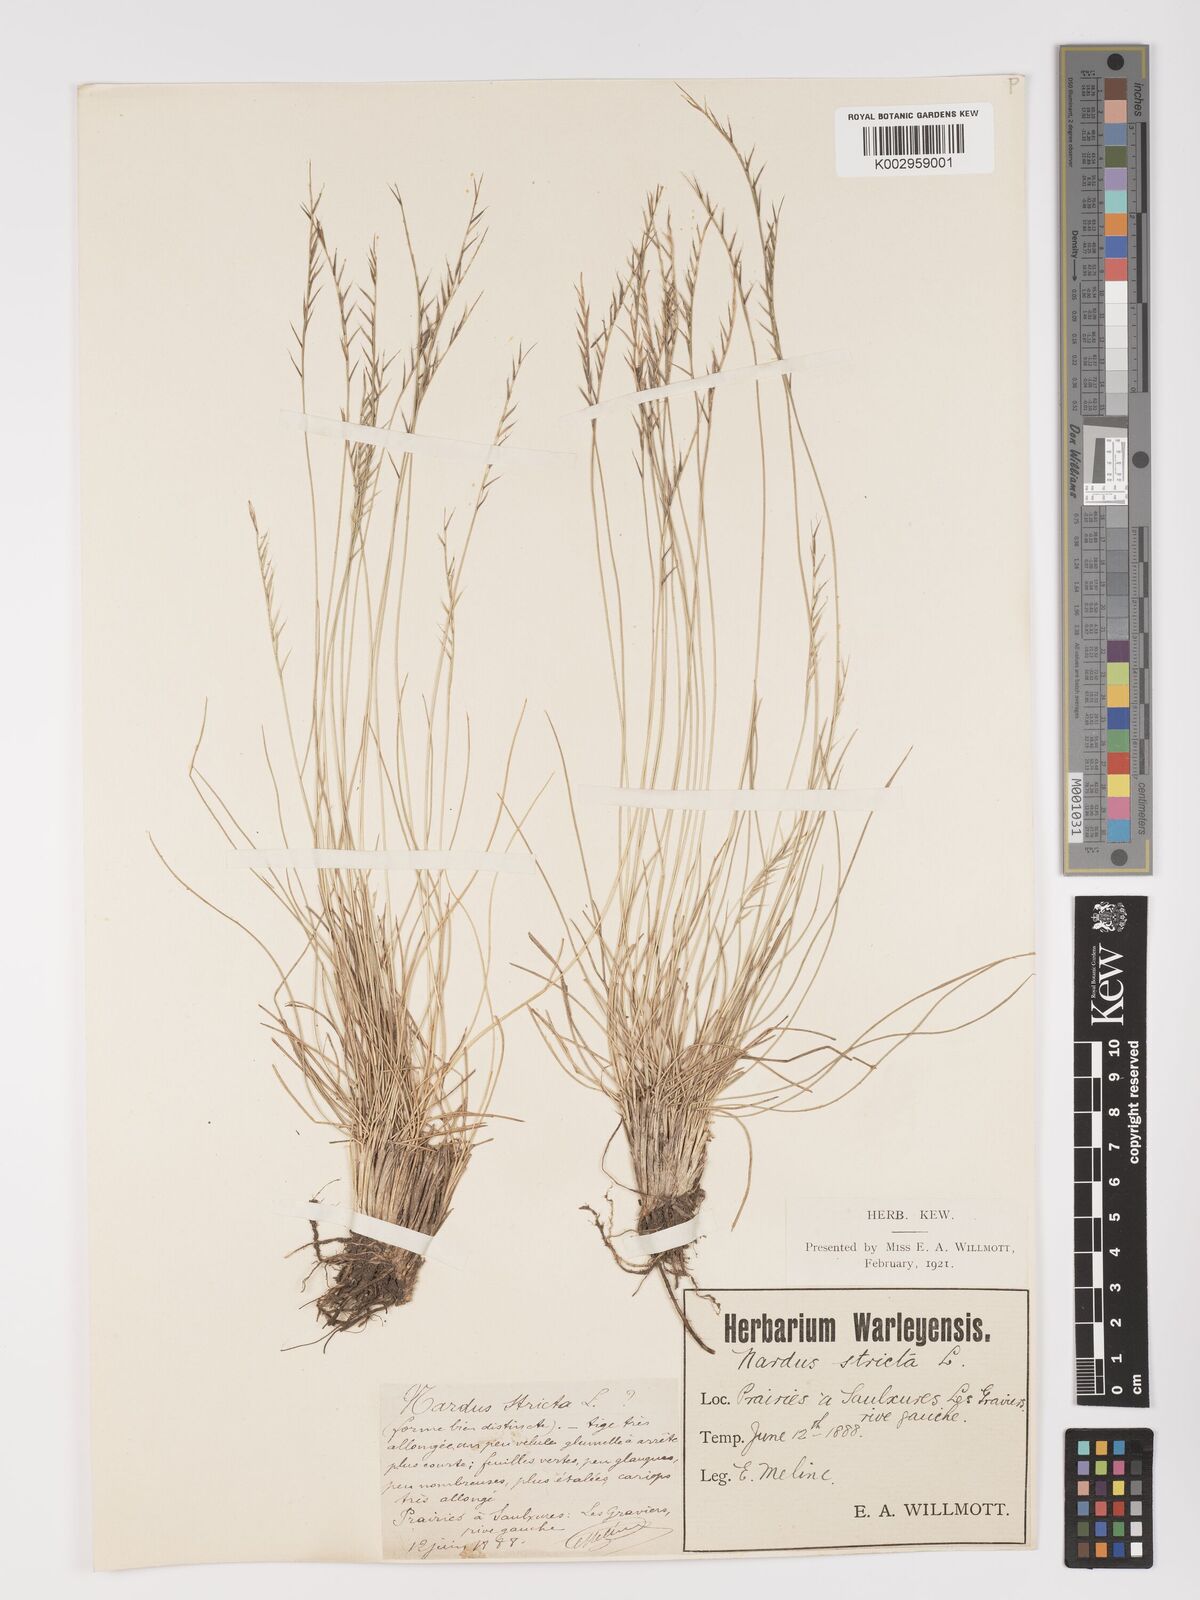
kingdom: Plantae
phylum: Tracheophyta
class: Liliopsida
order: Poales
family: Poaceae
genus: Nardus
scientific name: Nardus stricta
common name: Mat-grass
